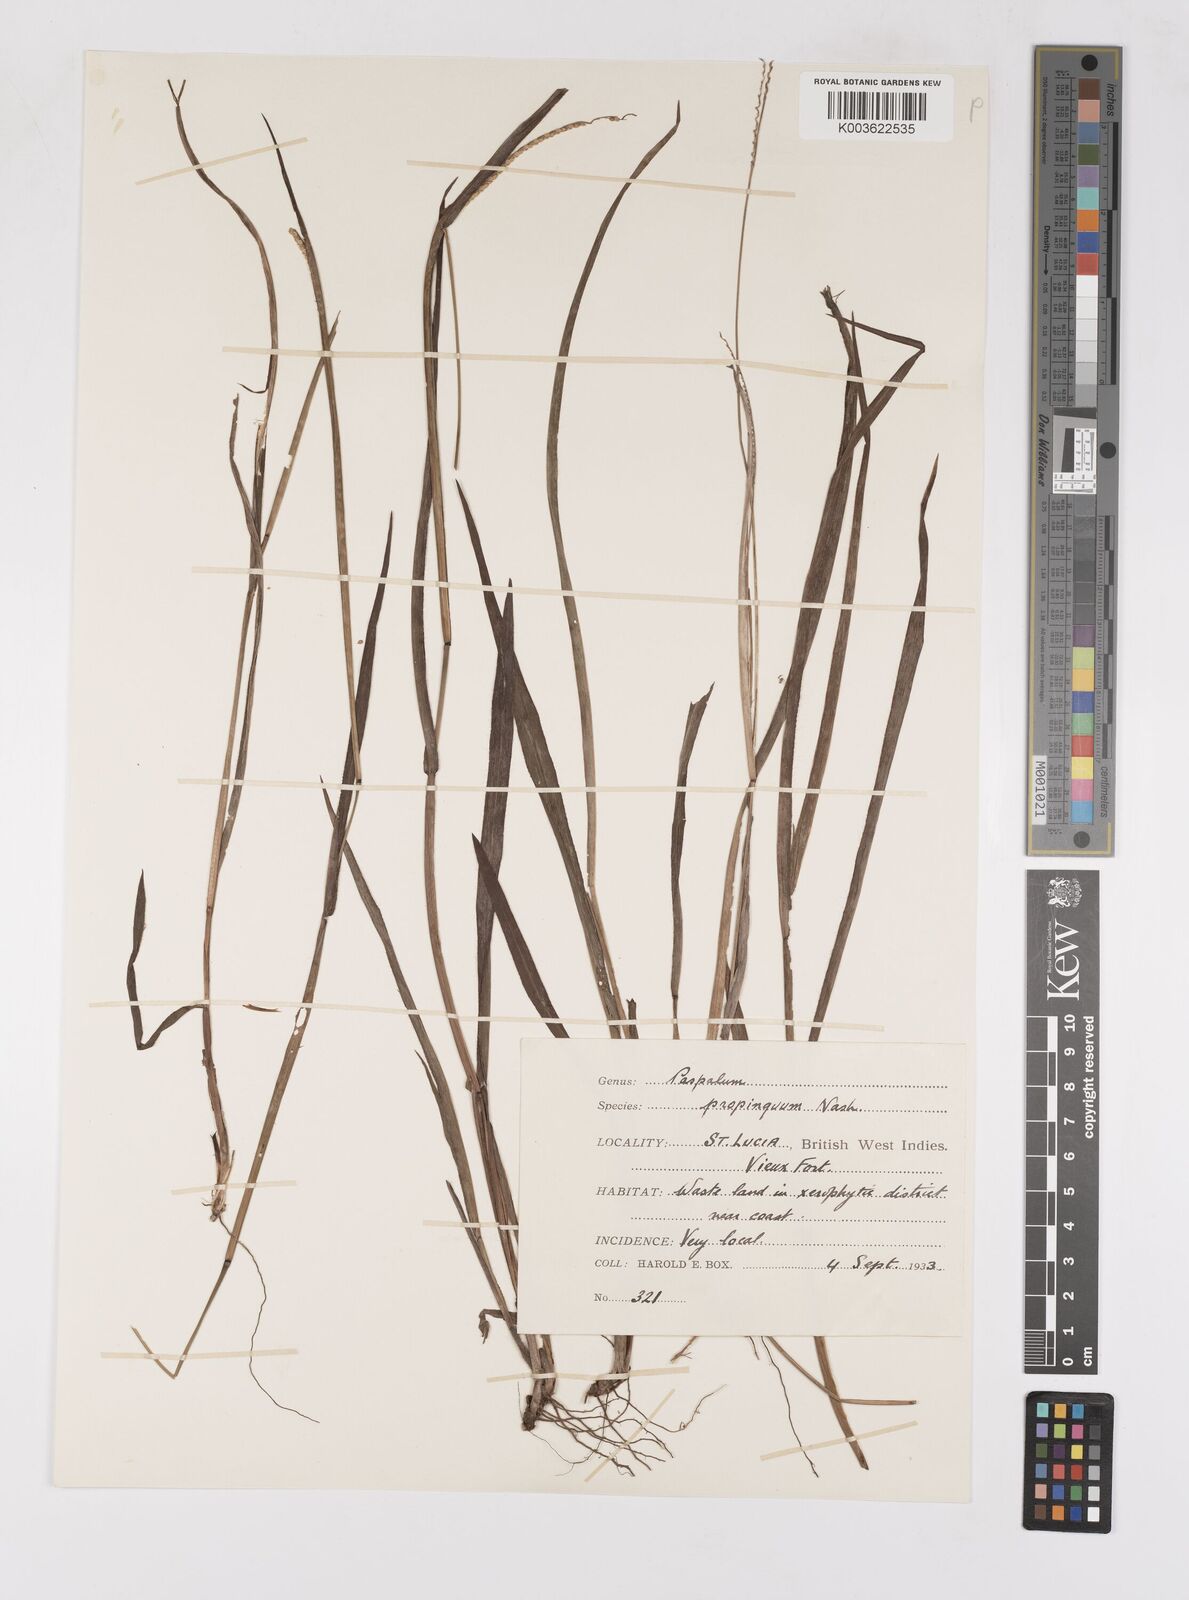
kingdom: Plantae
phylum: Tracheophyta
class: Liliopsida
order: Poales
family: Poaceae
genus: Paspalum
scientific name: Paspalum
